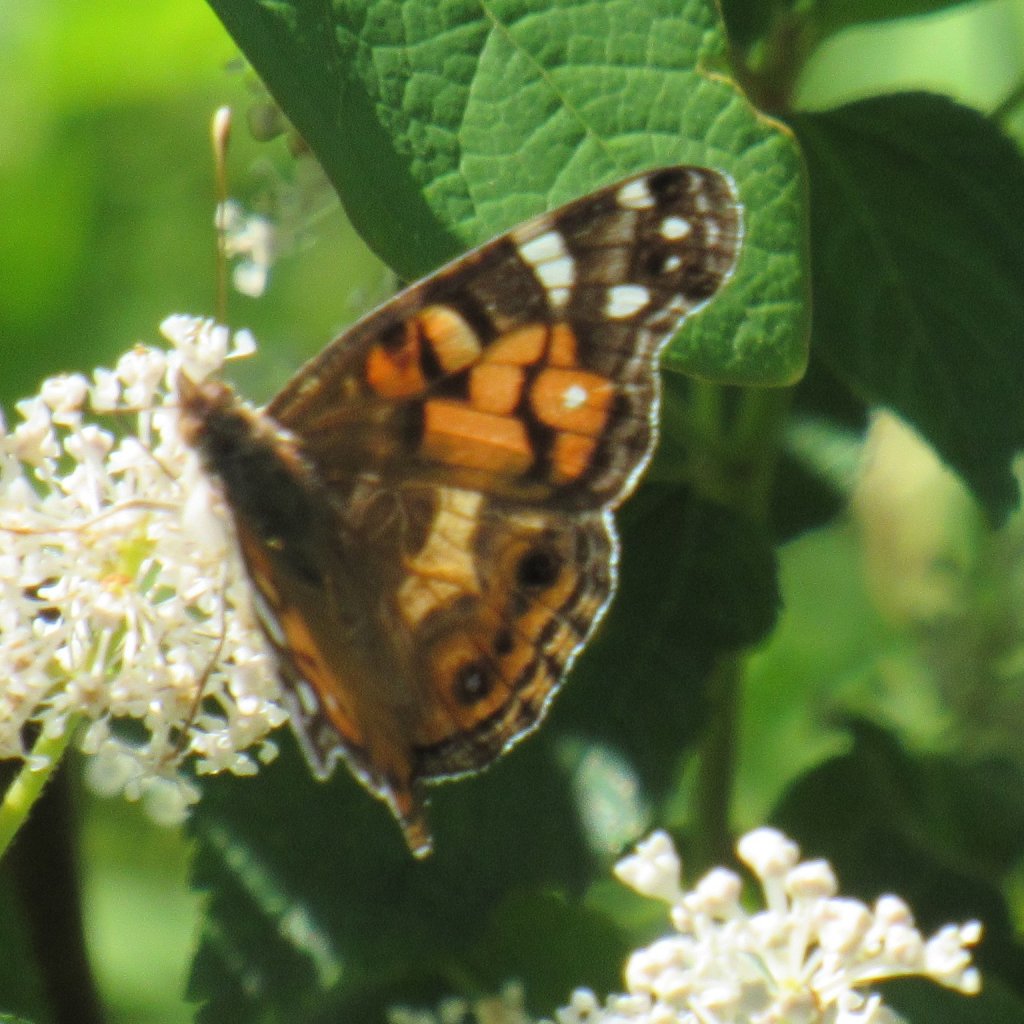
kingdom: Animalia
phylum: Arthropoda
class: Insecta
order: Lepidoptera
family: Nymphalidae
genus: Vanessa
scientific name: Vanessa virginiensis
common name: American Lady
